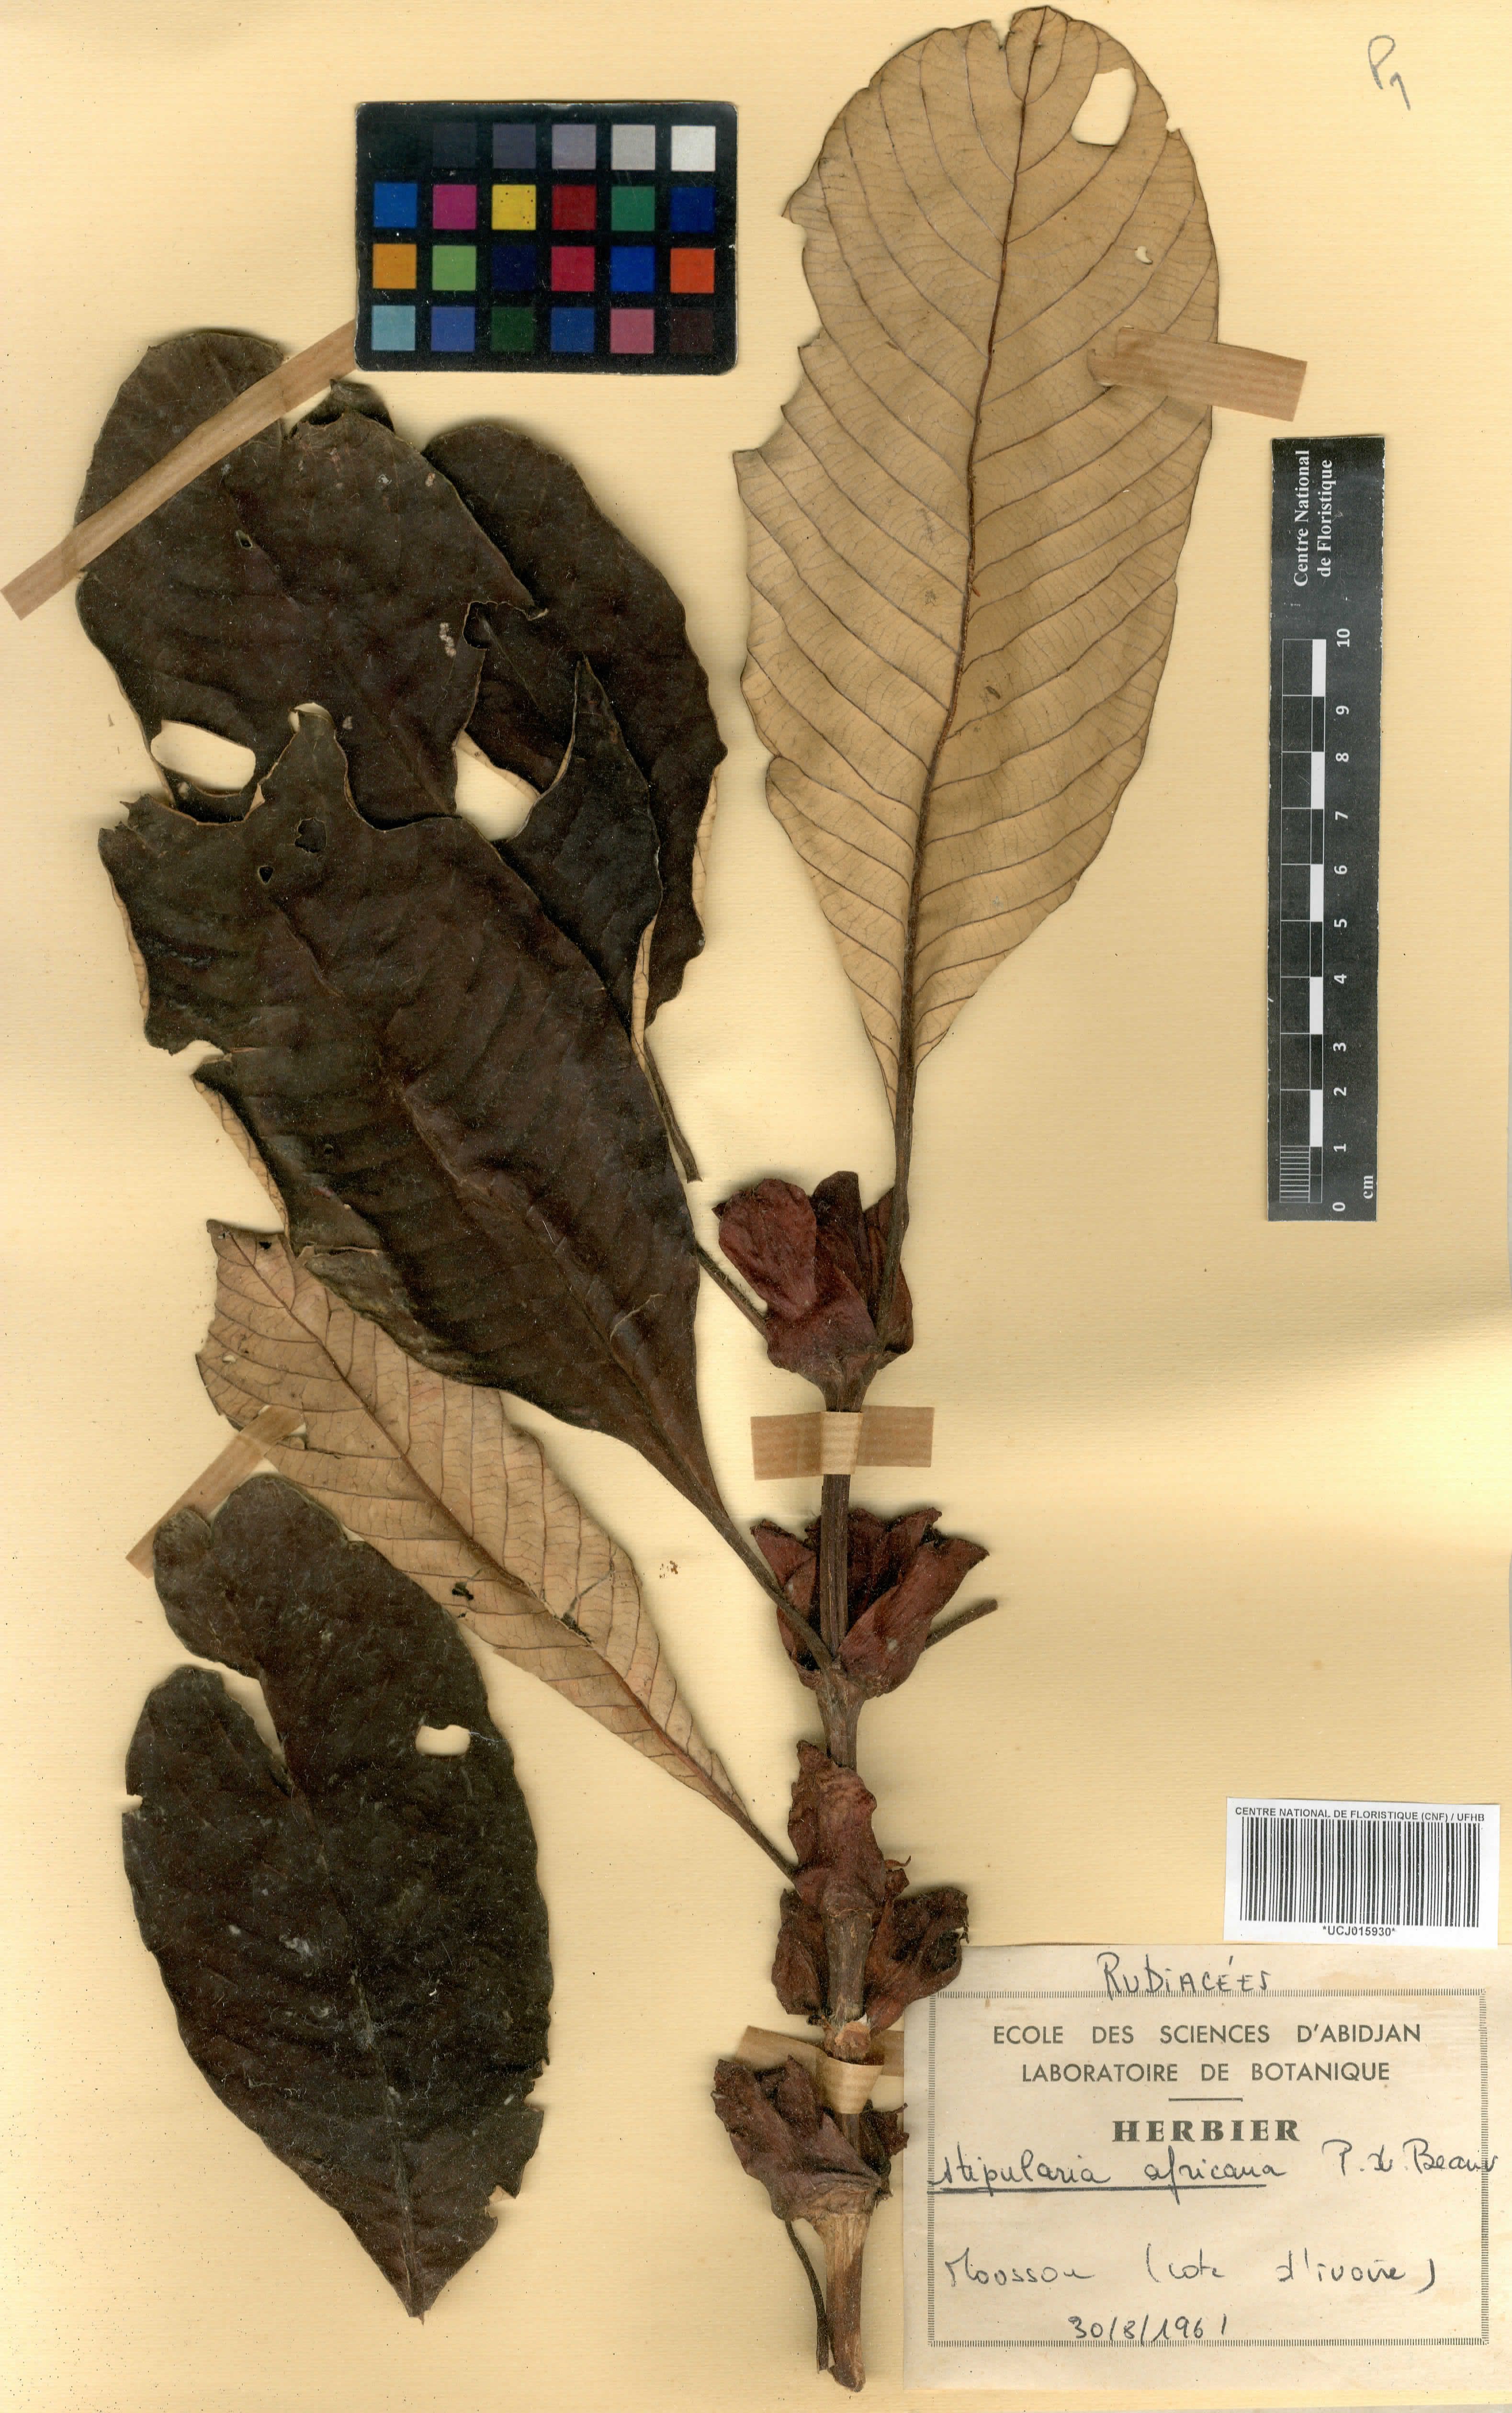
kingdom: Plantae
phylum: Tracheophyta
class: Magnoliopsida
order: Gentianales
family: Rubiaceae
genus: Stipularia
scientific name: Stipularia africana
